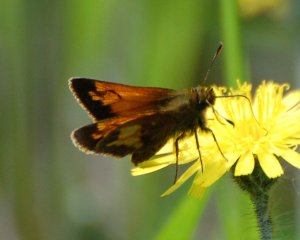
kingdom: Animalia
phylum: Arthropoda
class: Insecta
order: Lepidoptera
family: Hesperiidae
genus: Lon
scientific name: Lon hobomok
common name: Hobomok Skipper
